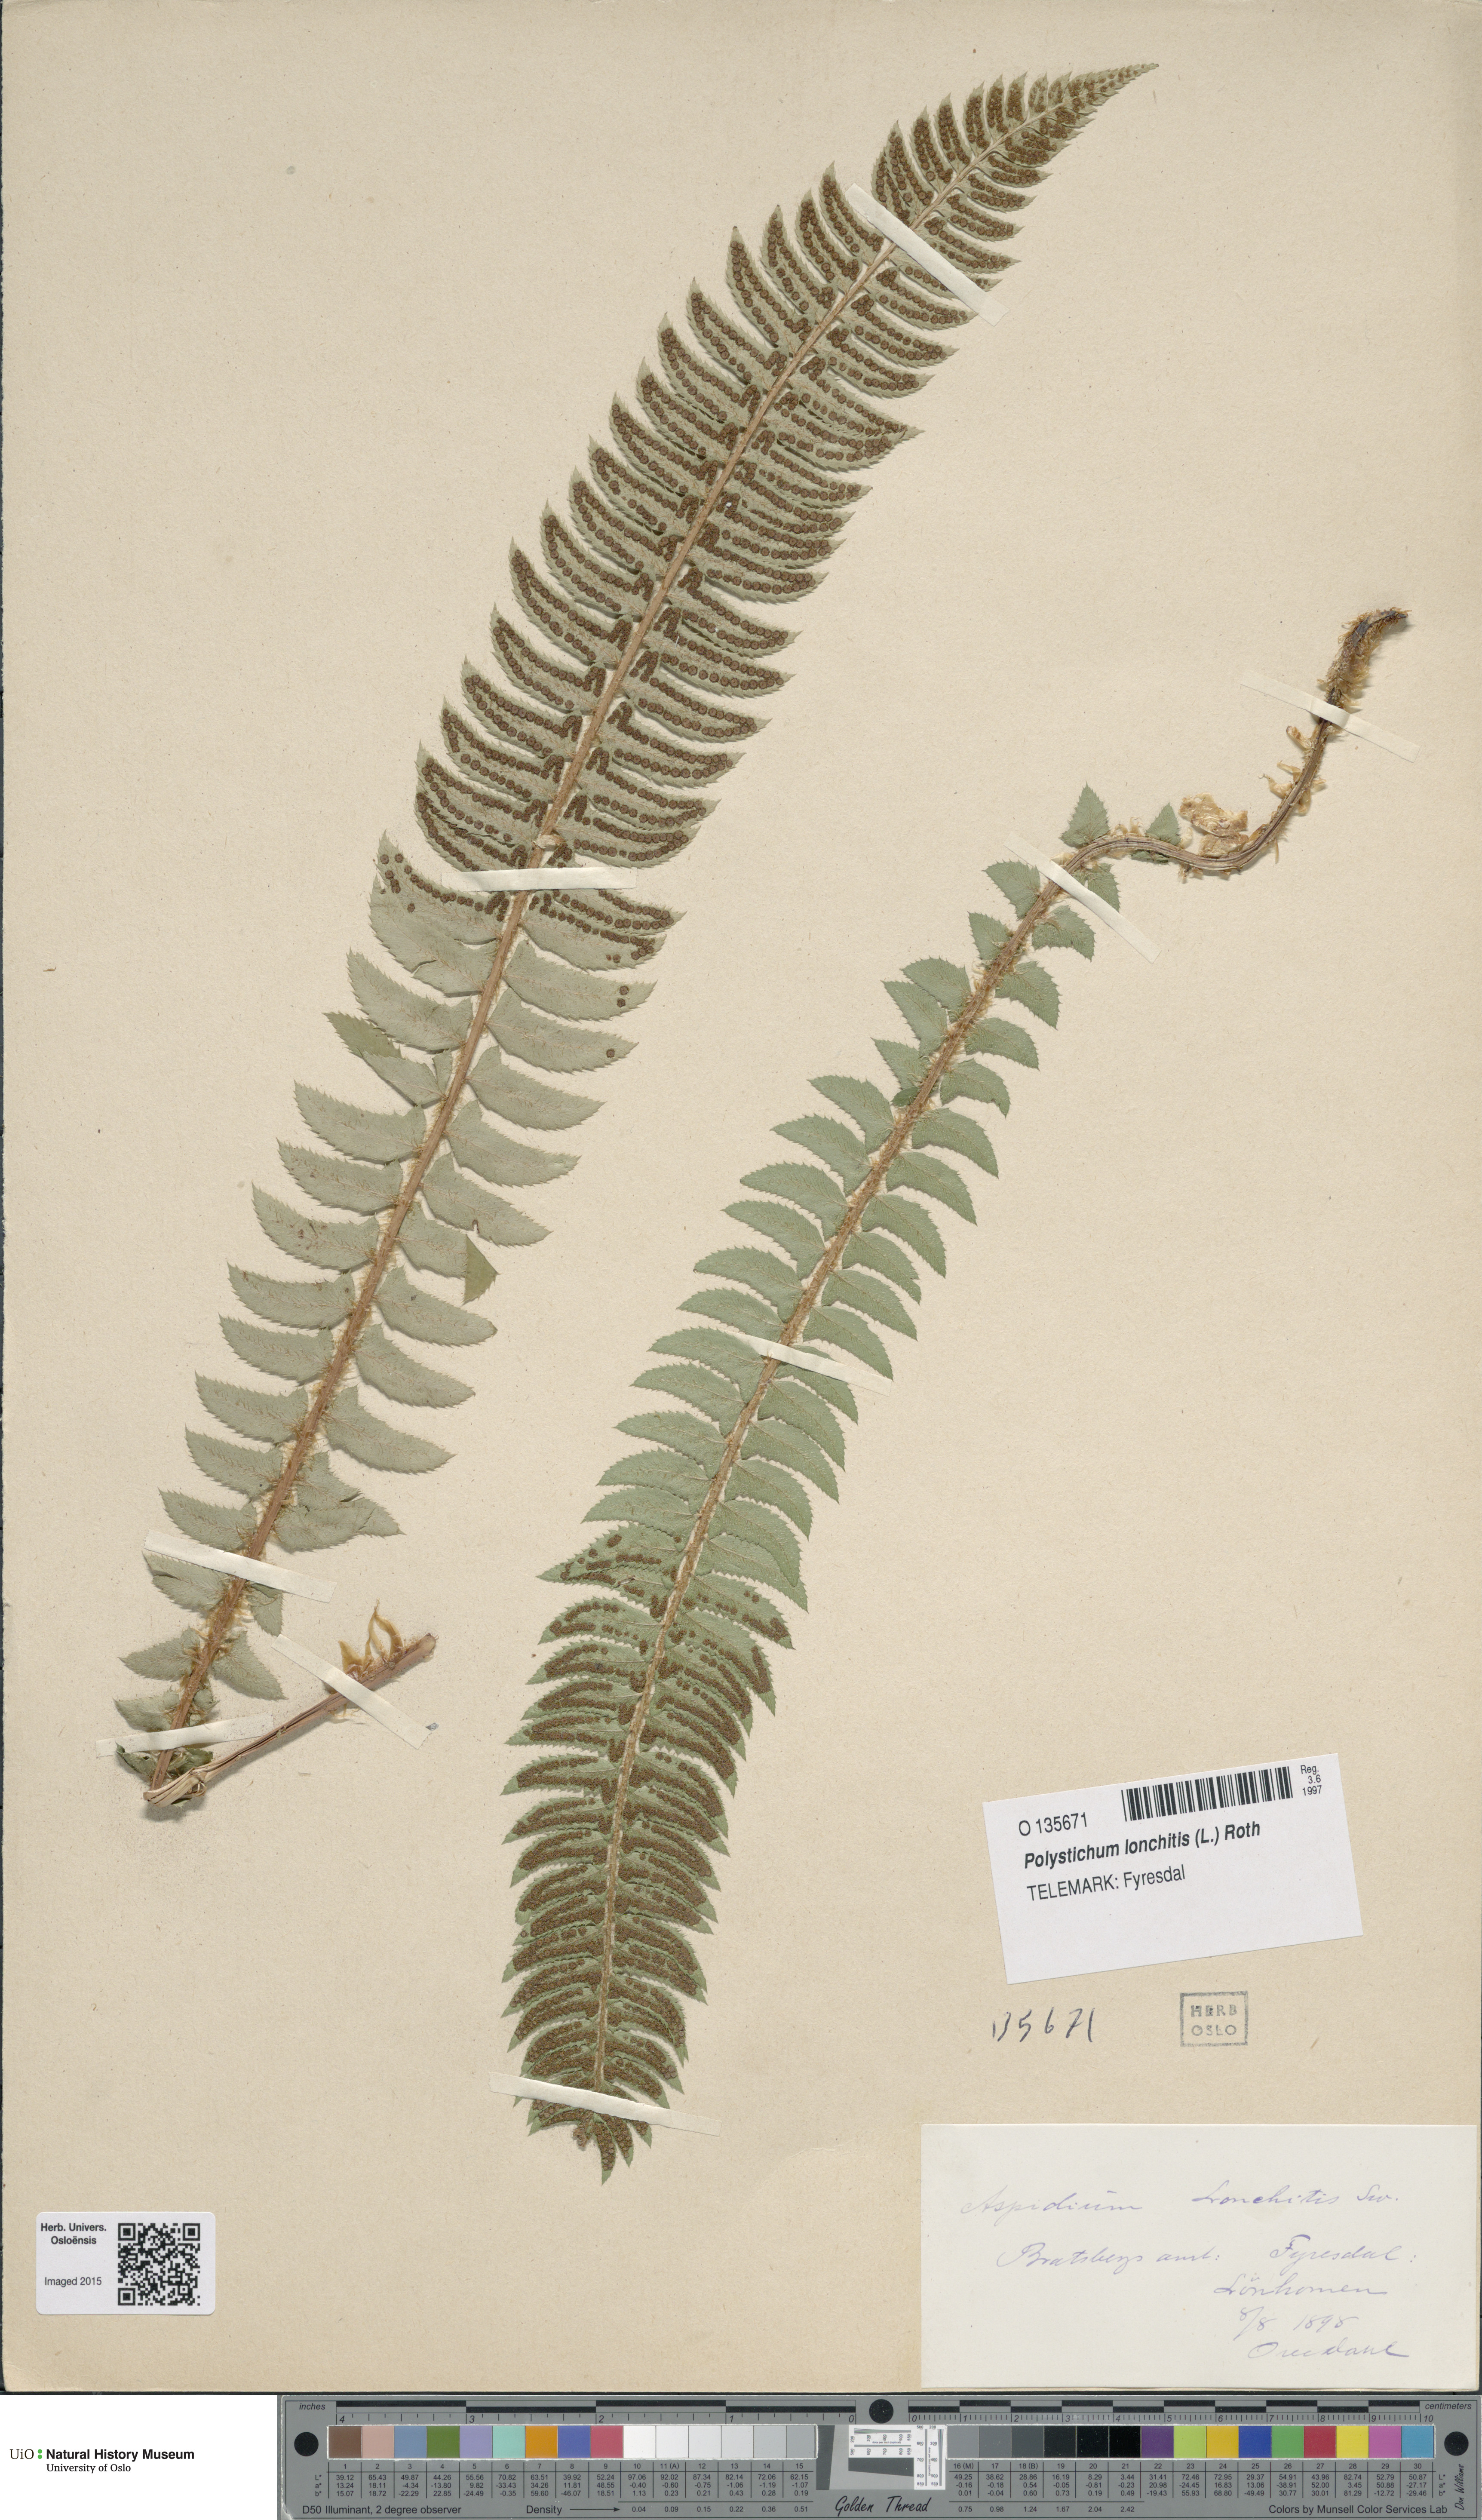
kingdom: Plantae
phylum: Tracheophyta
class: Polypodiopsida
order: Polypodiales
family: Dryopteridaceae
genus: Polystichum
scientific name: Polystichum lonchitis
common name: Holly fern
